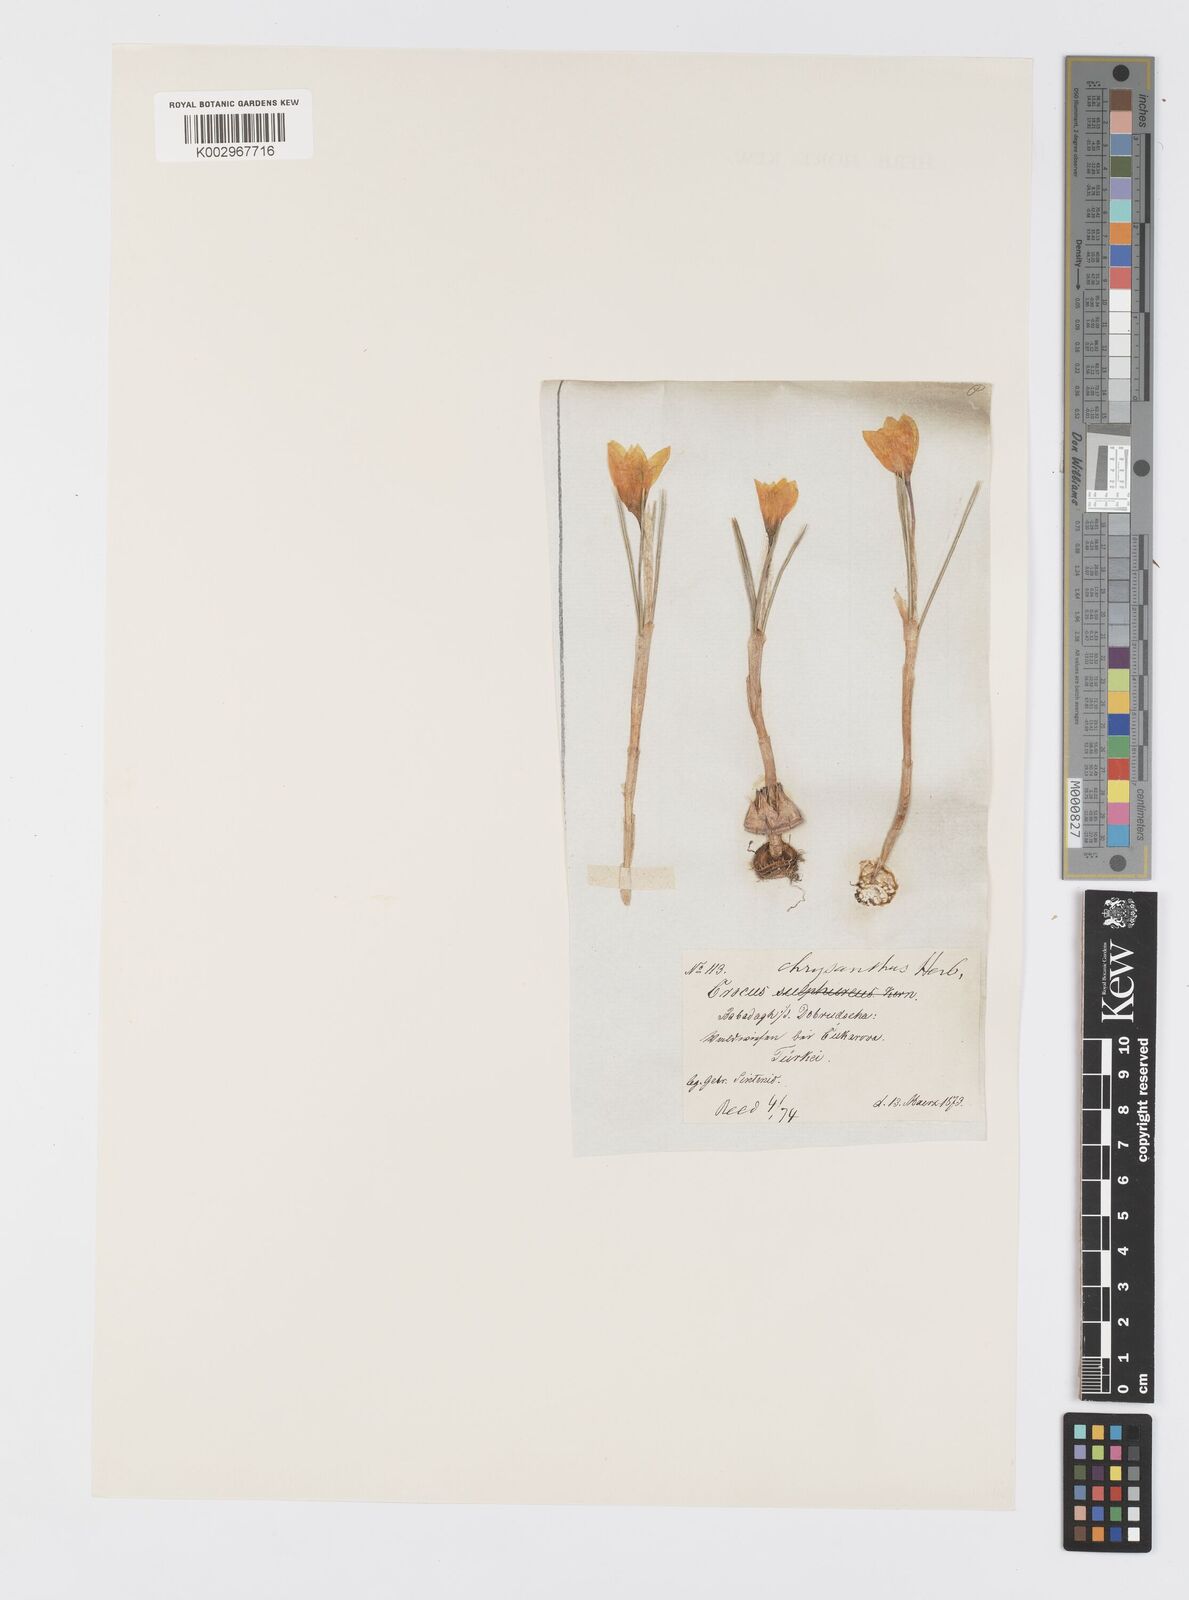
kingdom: Plantae
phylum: Tracheophyta
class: Liliopsida
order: Asparagales
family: Iridaceae
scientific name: Iridaceae
